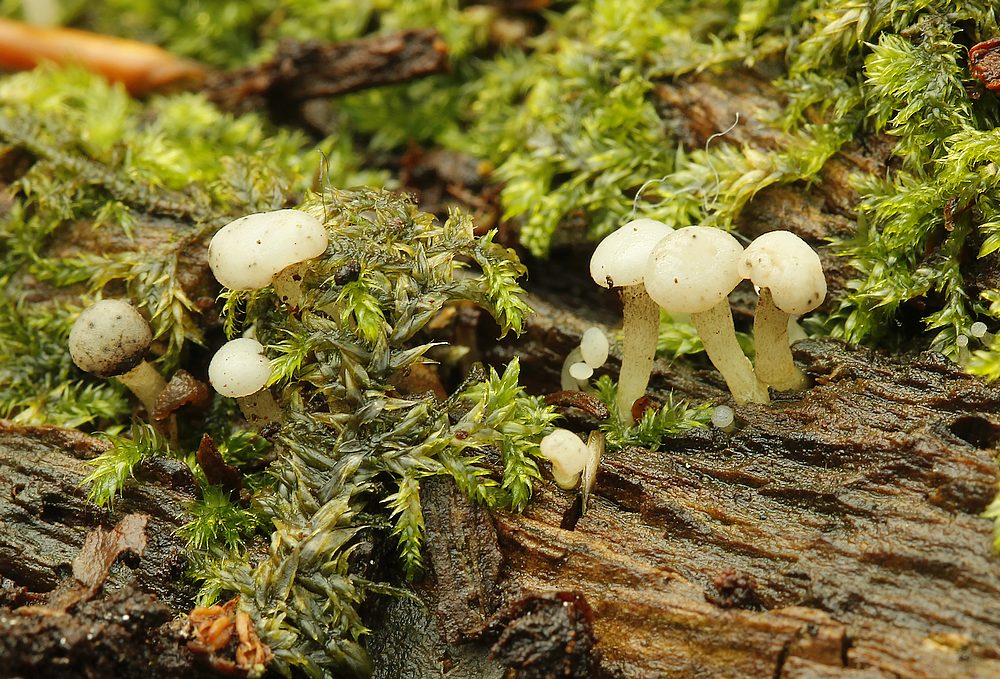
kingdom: Fungi
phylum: Ascomycota
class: Leotiomycetes
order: Helotiales
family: Tricladiaceae
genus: Cudoniella
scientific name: Cudoniella acicularis
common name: ege-dyndskive
